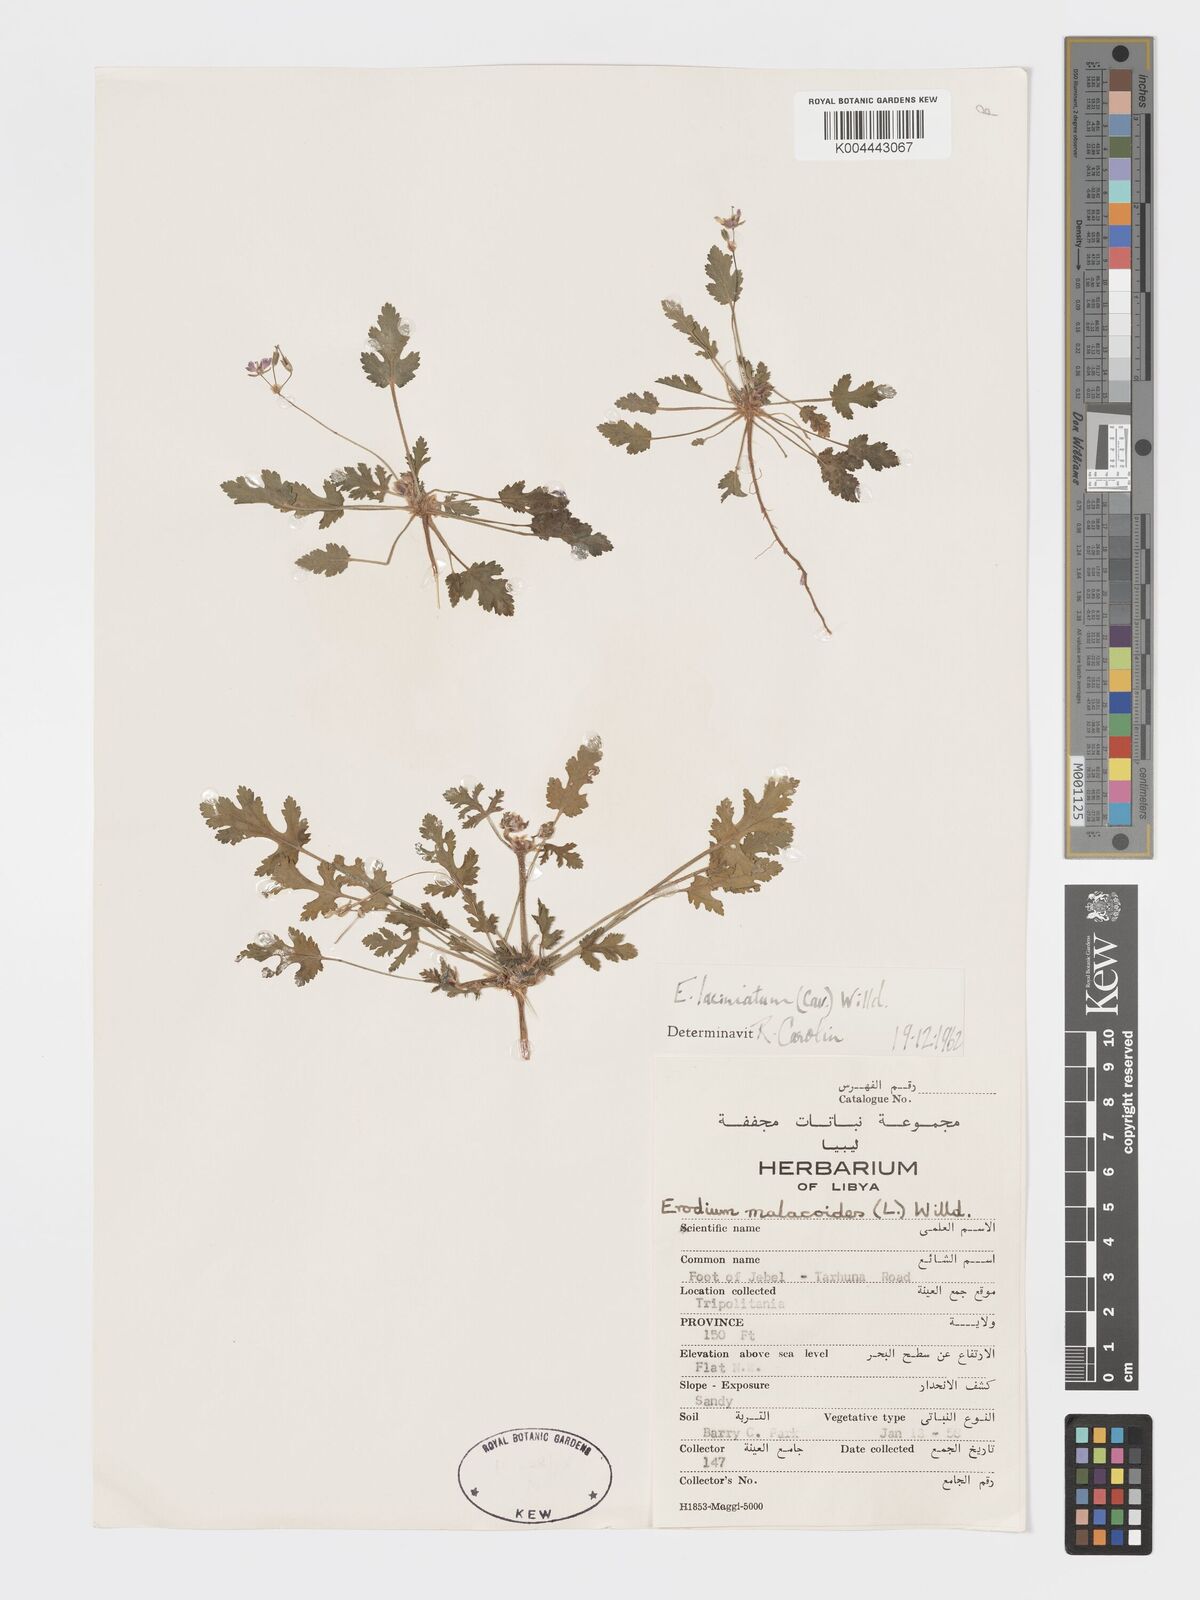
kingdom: Plantae
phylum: Tracheophyta
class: Magnoliopsida
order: Geraniales
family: Geraniaceae
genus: Erodium
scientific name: Erodium laciniatum
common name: Cutleaf stork's bill
